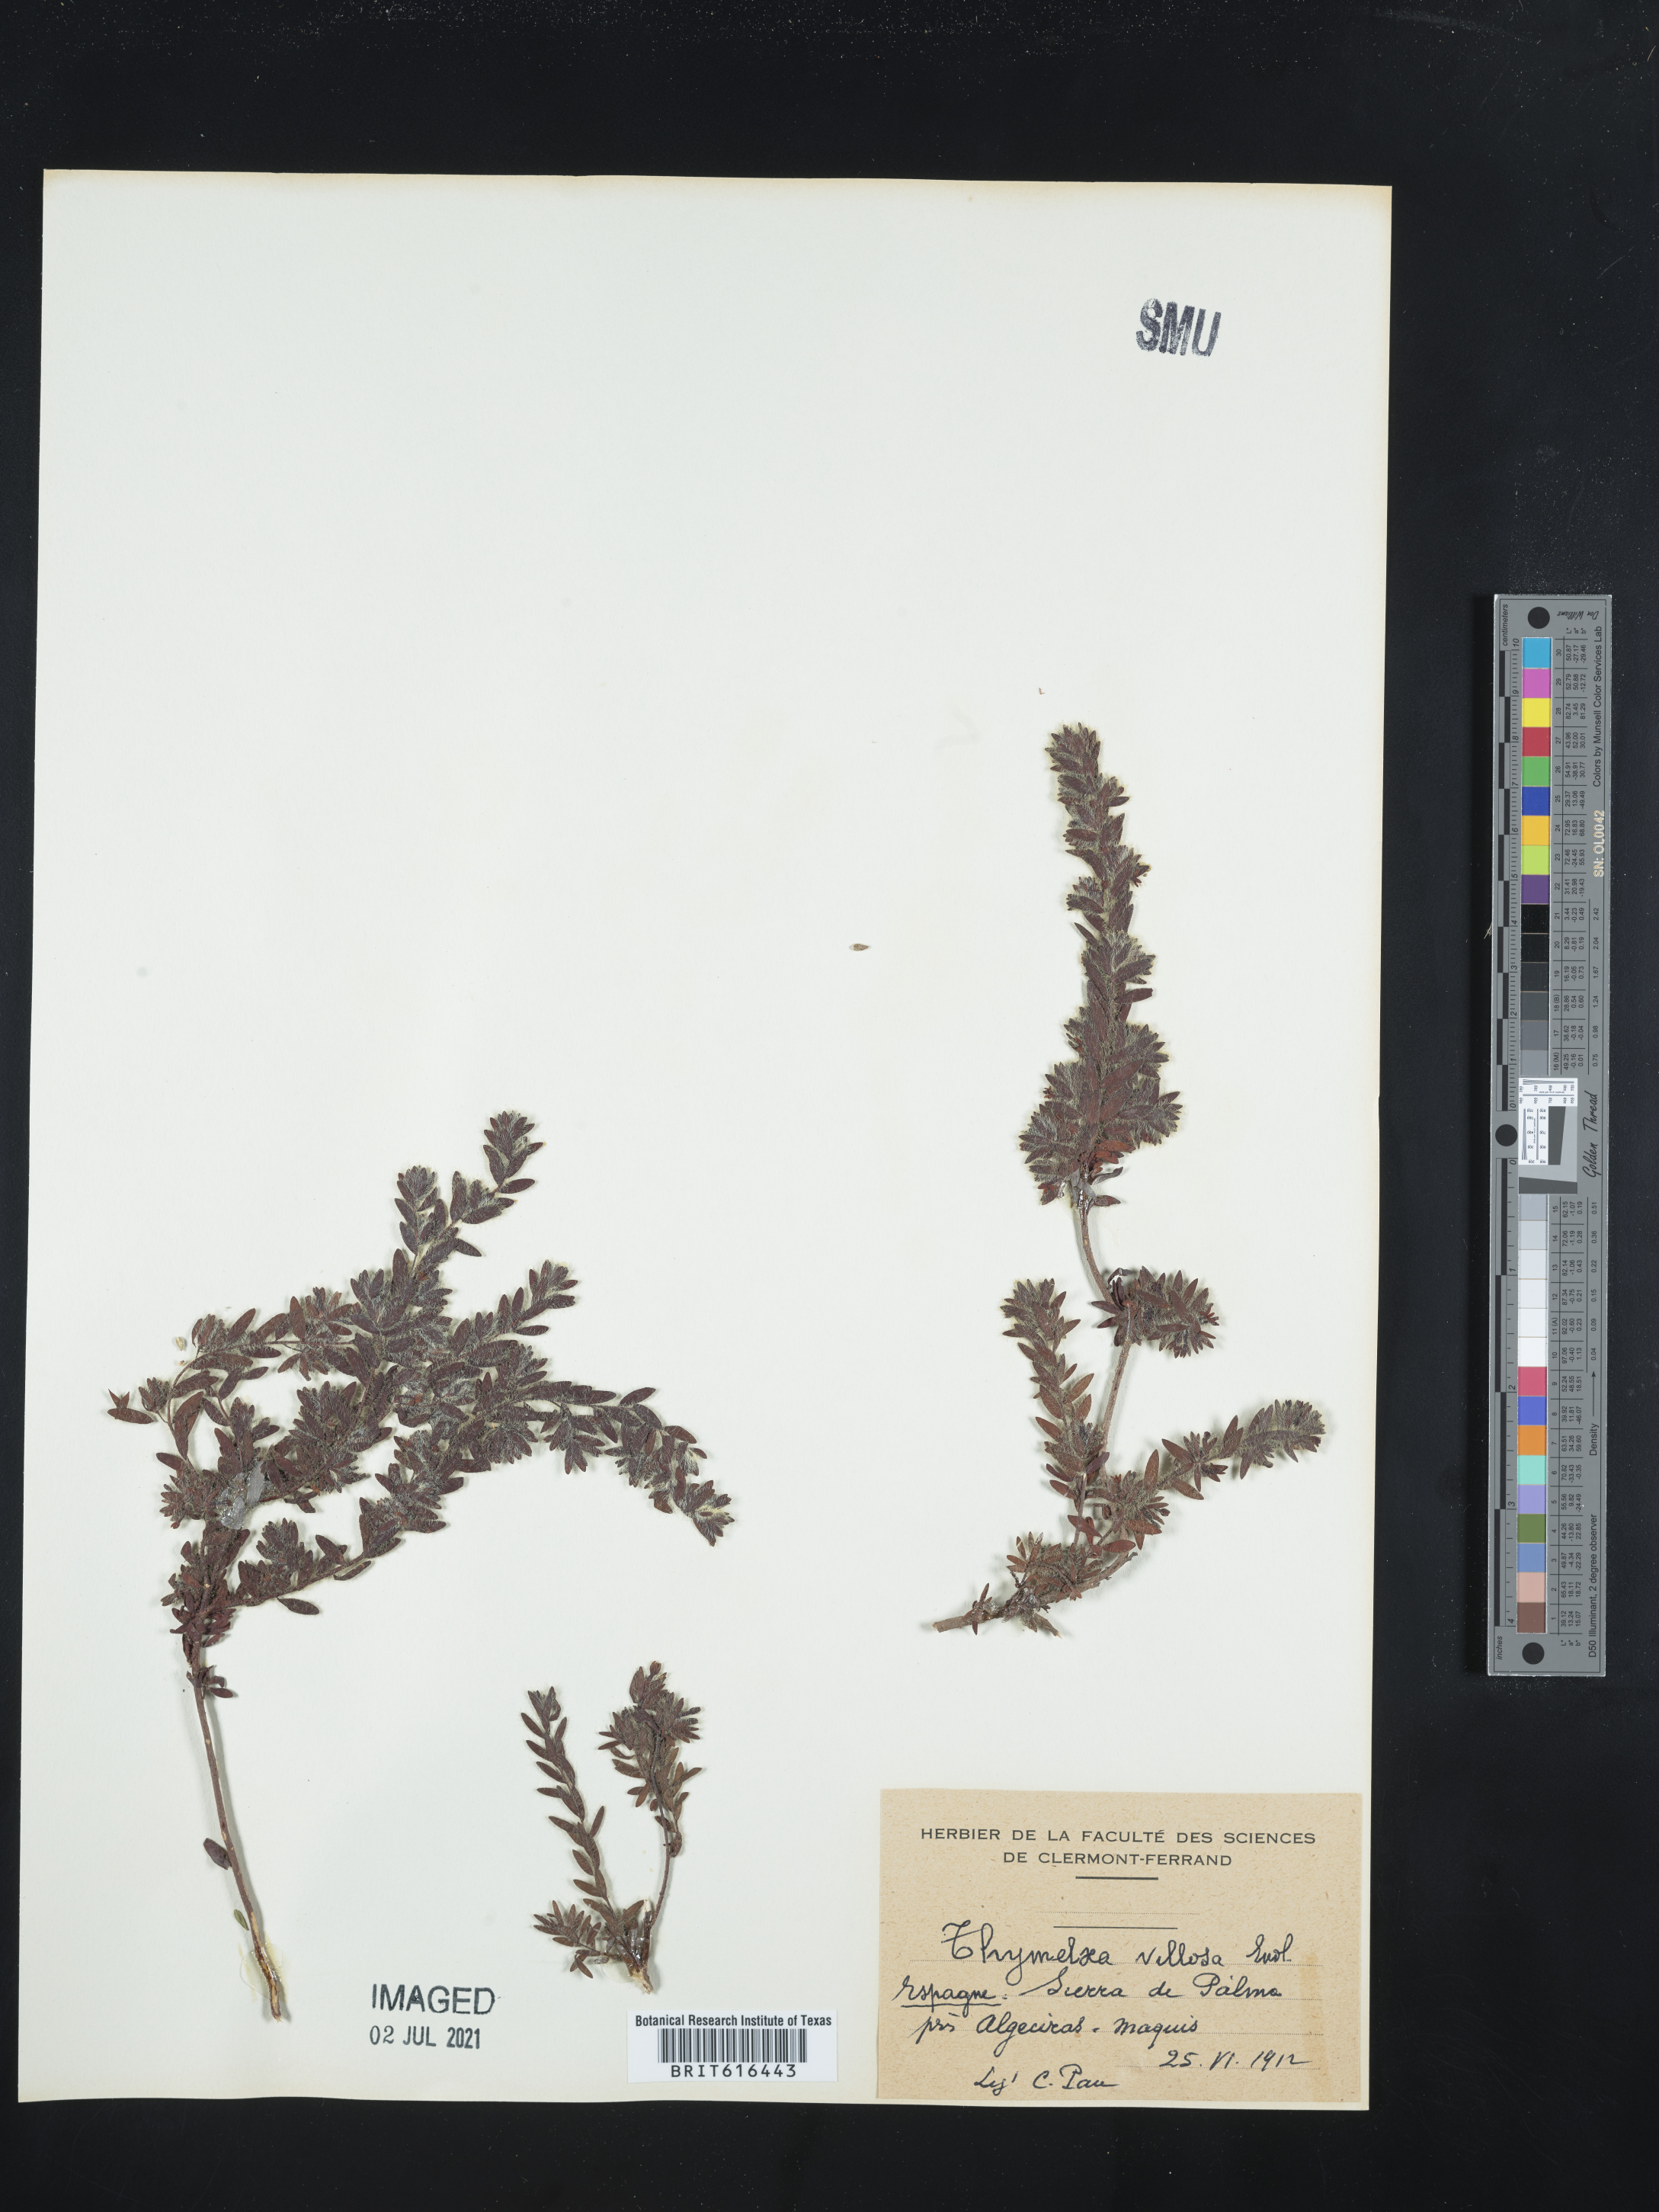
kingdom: Plantae
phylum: Tracheophyta
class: Magnoliopsida
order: Malvales
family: Thymelaeaceae
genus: Thymelaea
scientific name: Thymelaea villosa
